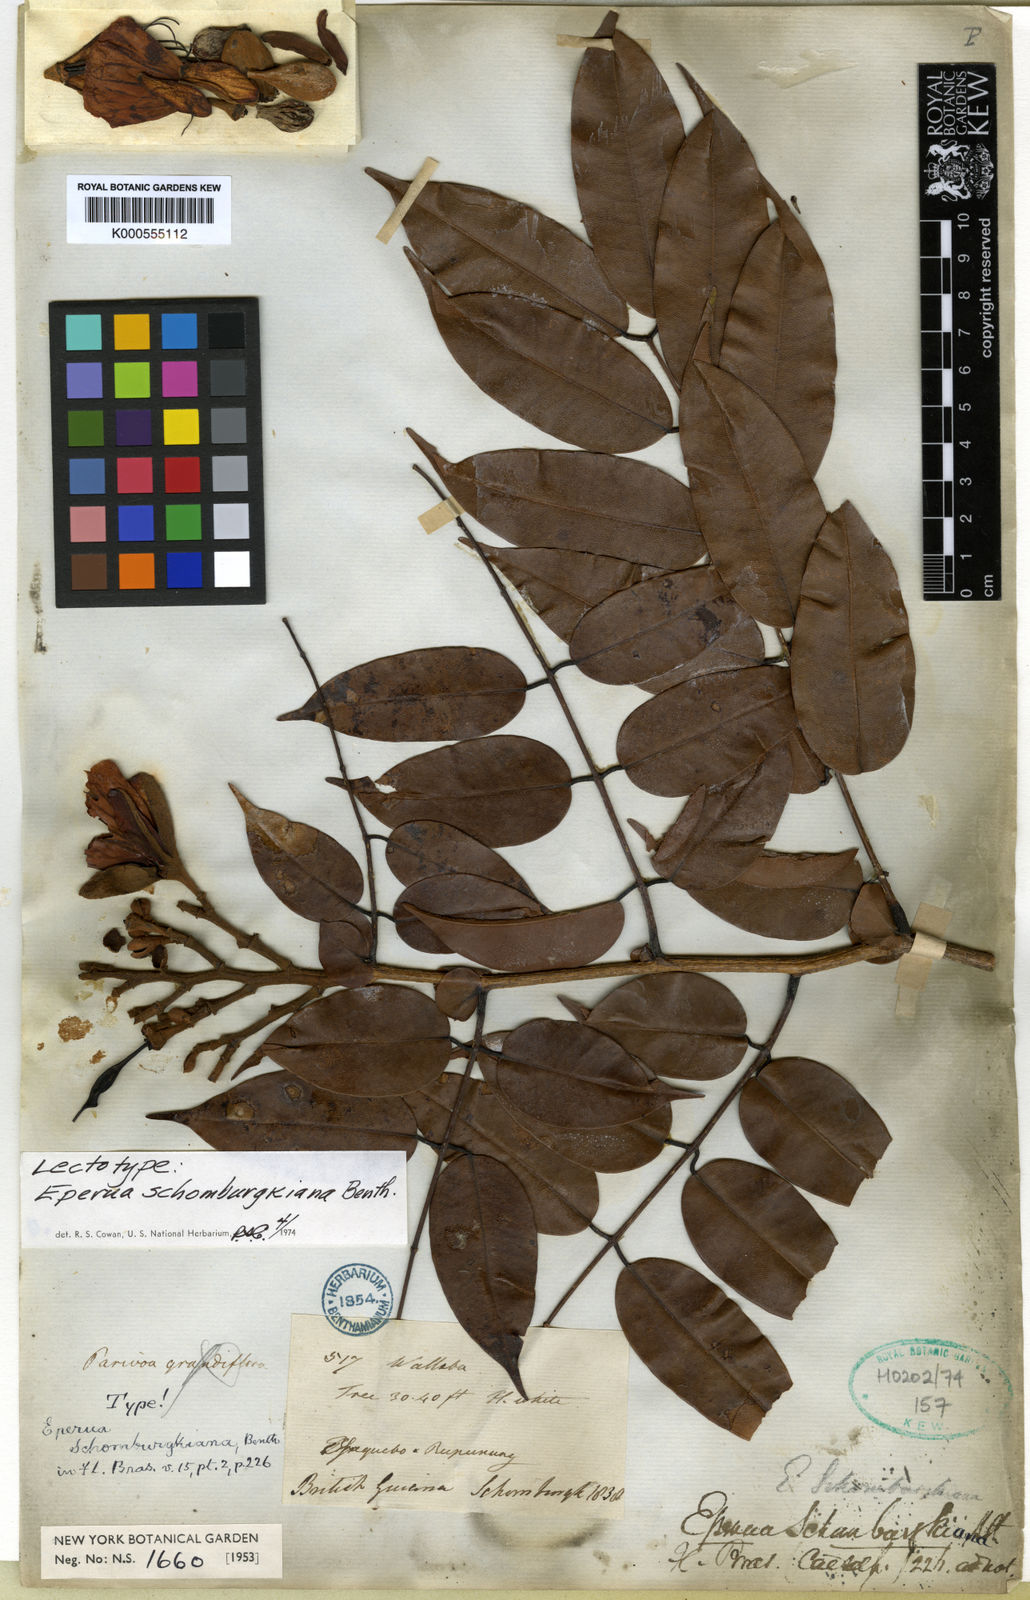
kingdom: Plantae
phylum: Tracheophyta
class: Magnoliopsida
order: Fabales
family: Fabaceae
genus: Eperua
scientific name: Eperua schomburgkiana
